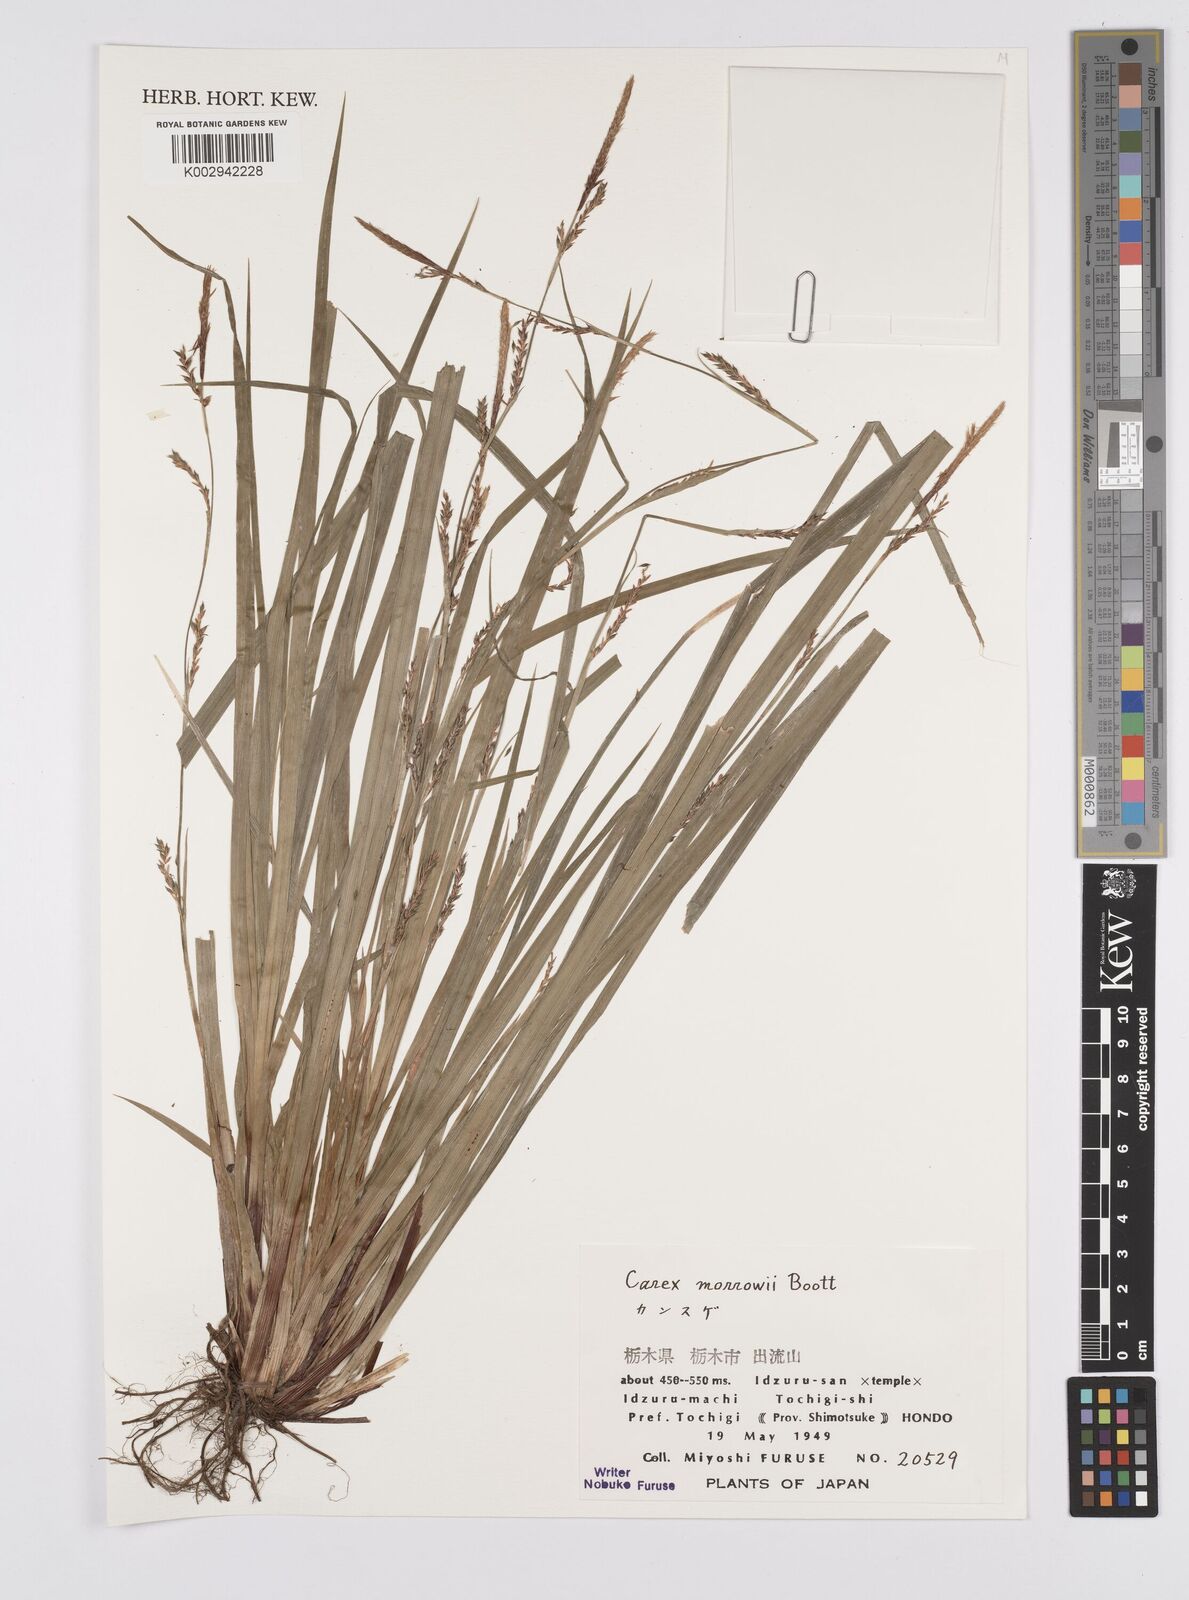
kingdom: Plantae
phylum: Tracheophyta
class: Liliopsida
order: Poales
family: Cyperaceae
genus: Carex
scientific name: Carex morrowii
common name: Japanese sedge
